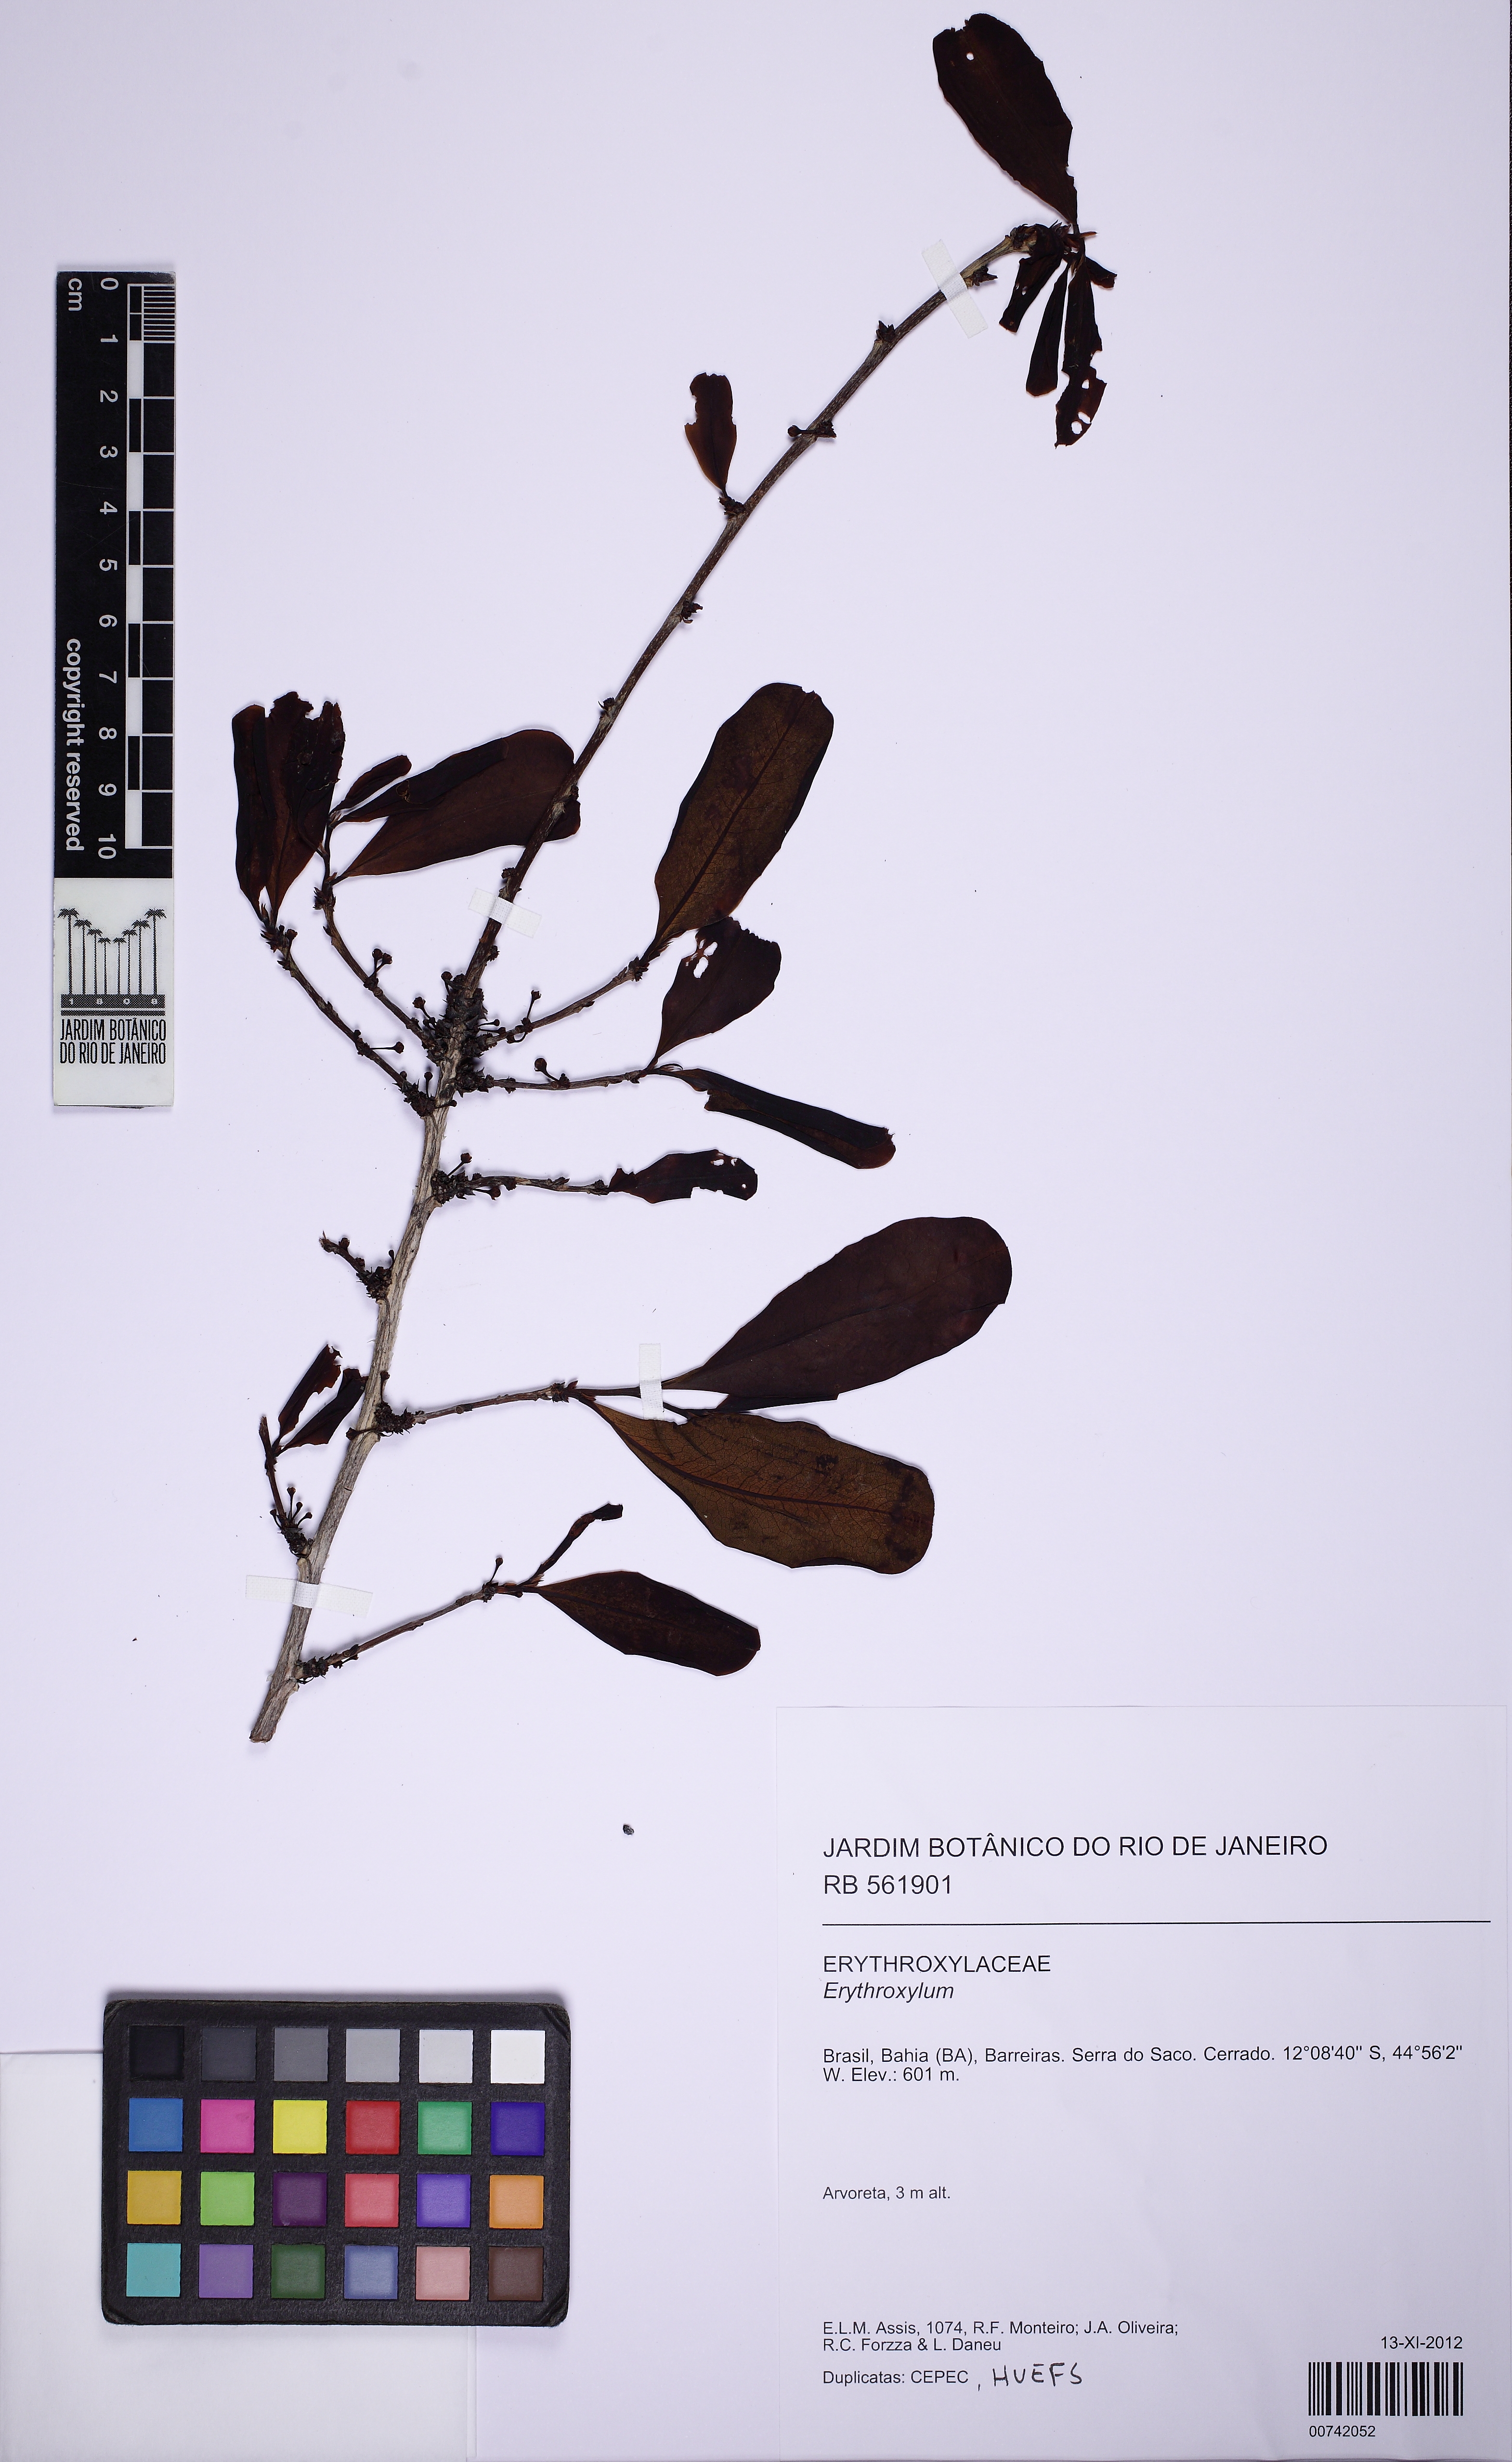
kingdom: Plantae
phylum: Tracheophyta
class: Magnoliopsida
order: Malpighiales
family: Erythroxylaceae
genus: Erythroxylum
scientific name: Erythroxylum engleri
